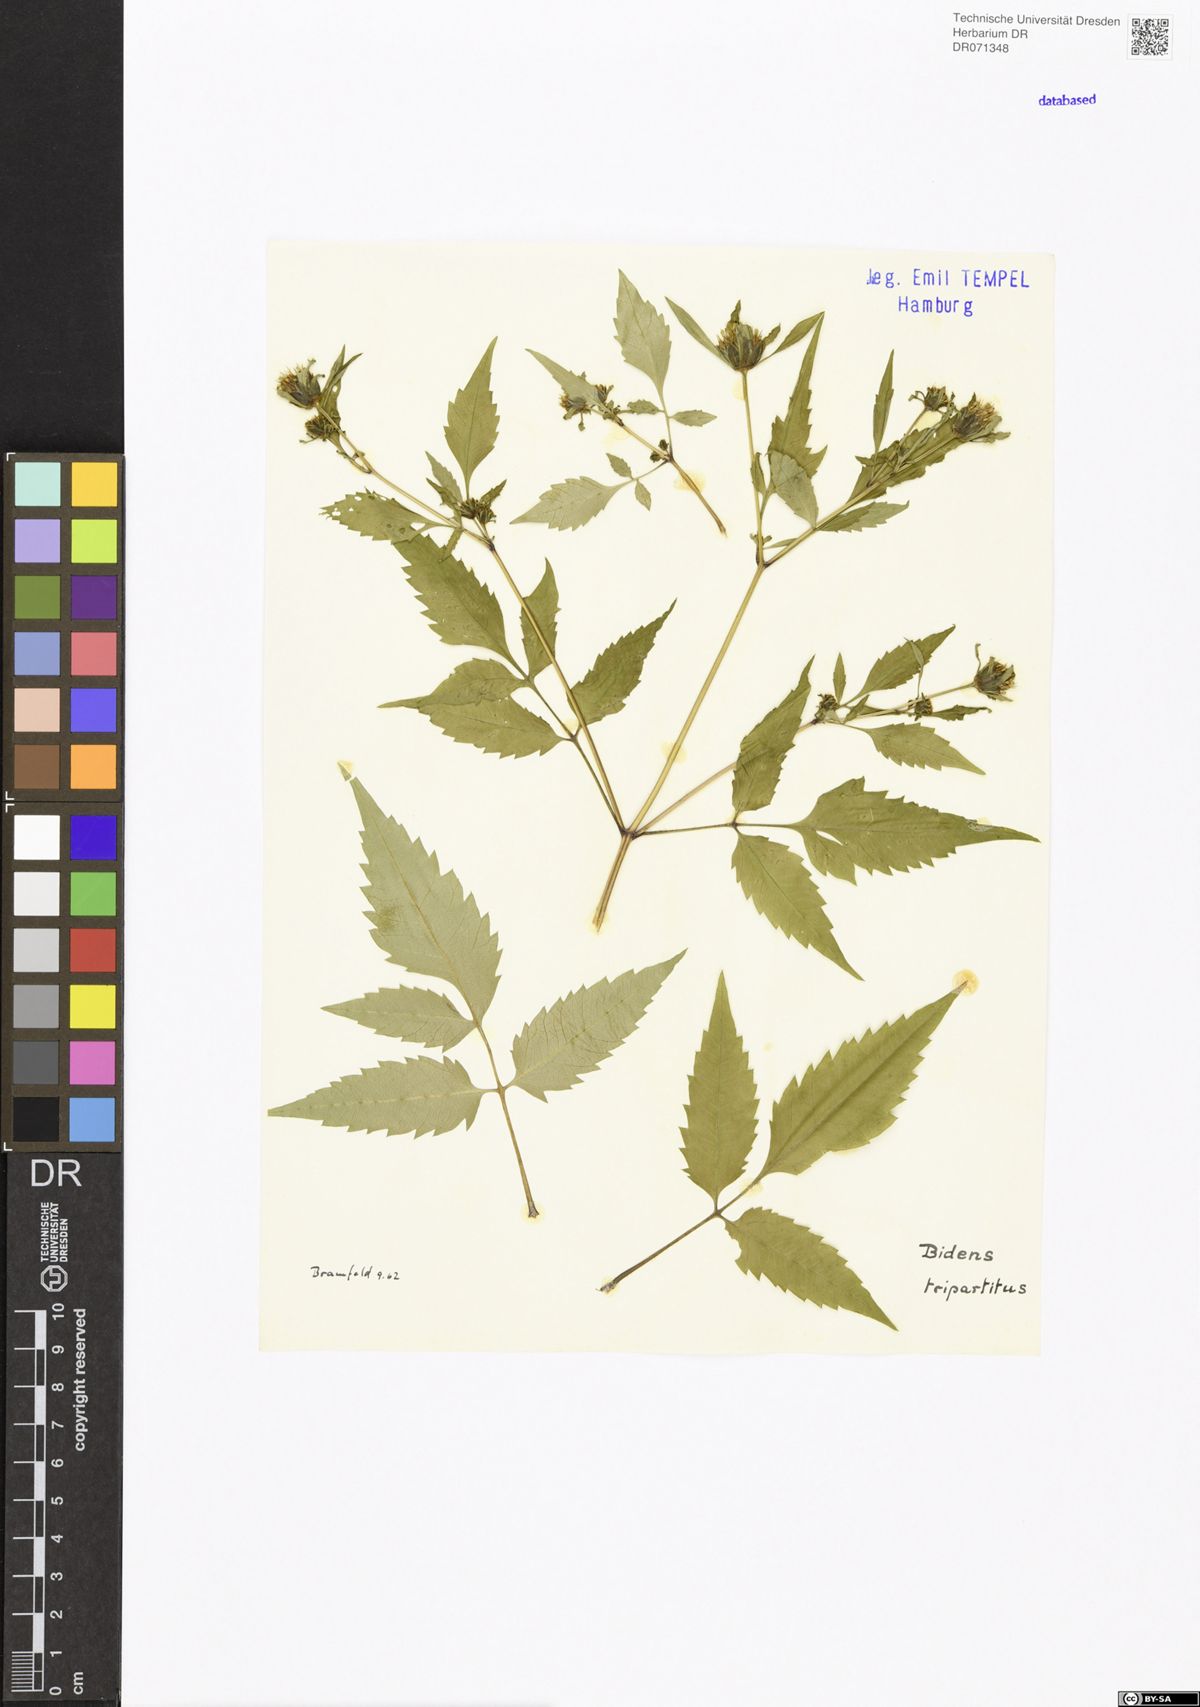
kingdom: Plantae
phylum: Tracheophyta
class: Magnoliopsida
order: Asterales
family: Asteraceae
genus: Bidens
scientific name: Bidens tripartita
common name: Trifid bur-marigold
